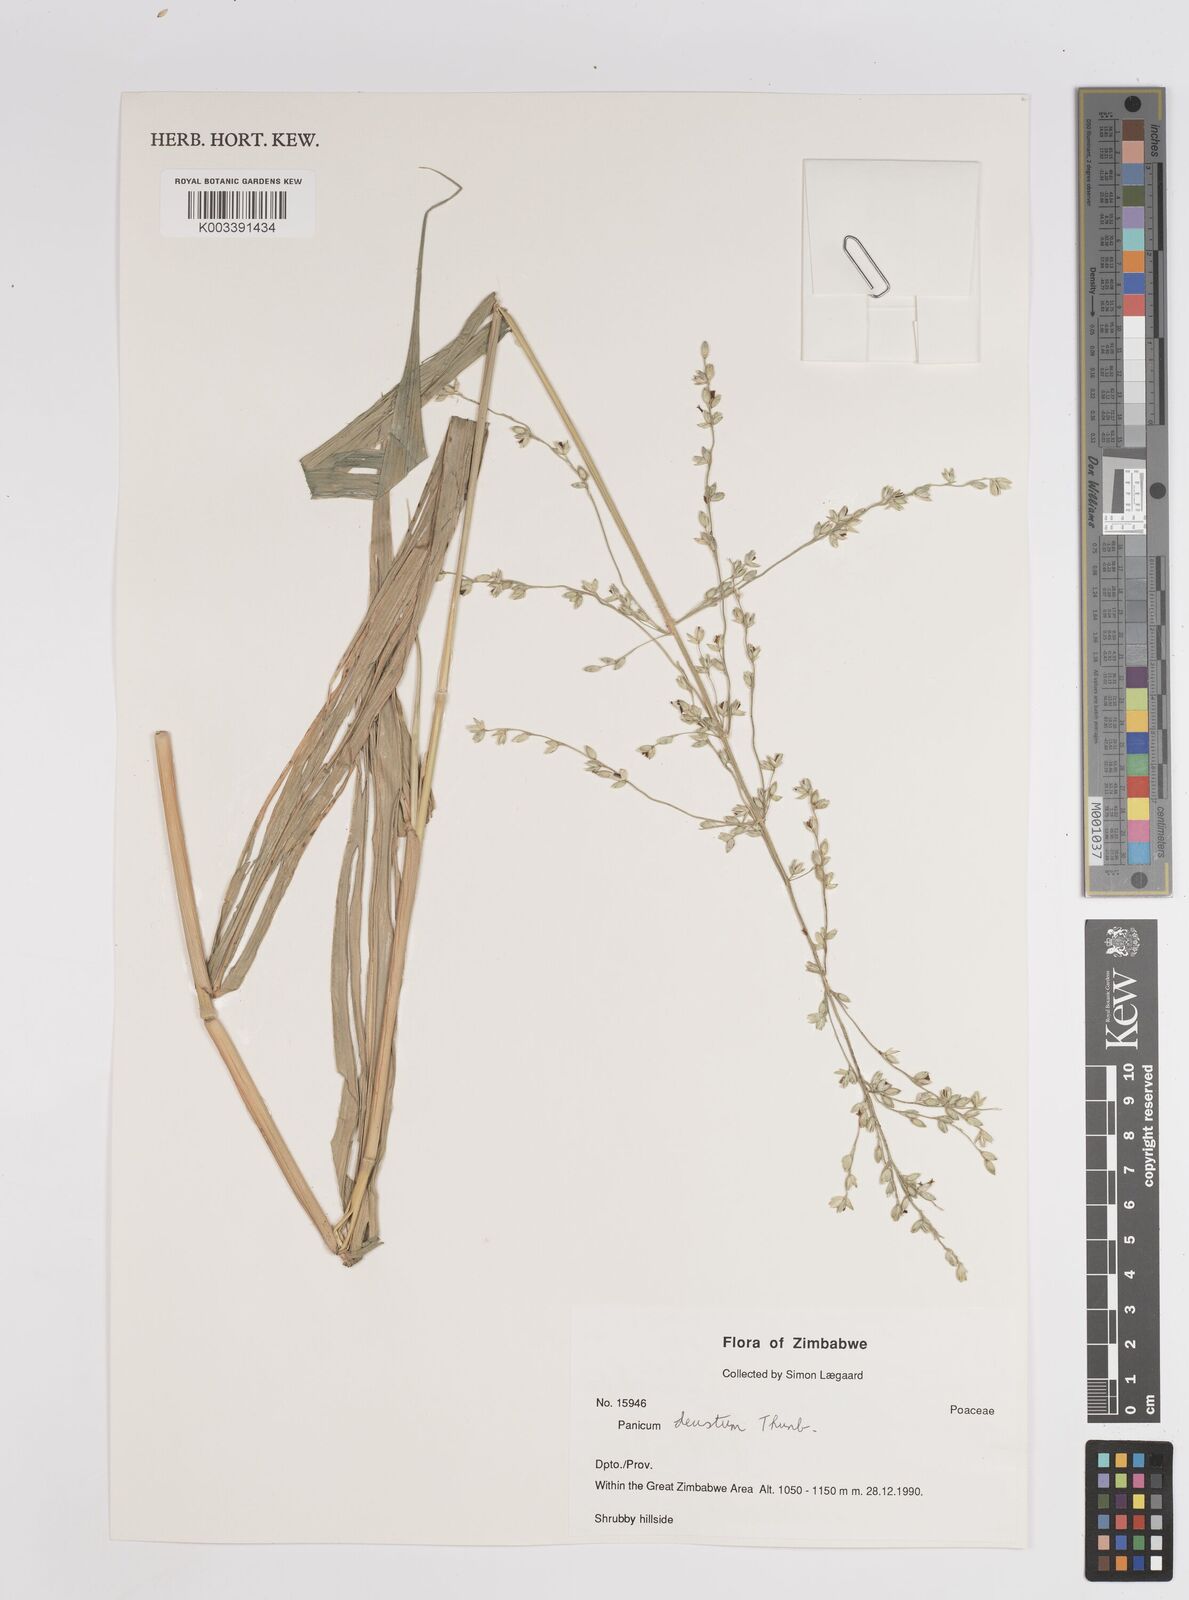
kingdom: Plantae
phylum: Tracheophyta
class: Liliopsida
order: Poales
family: Poaceae
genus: Panicum
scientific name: Panicum deustum
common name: Reed panicum
